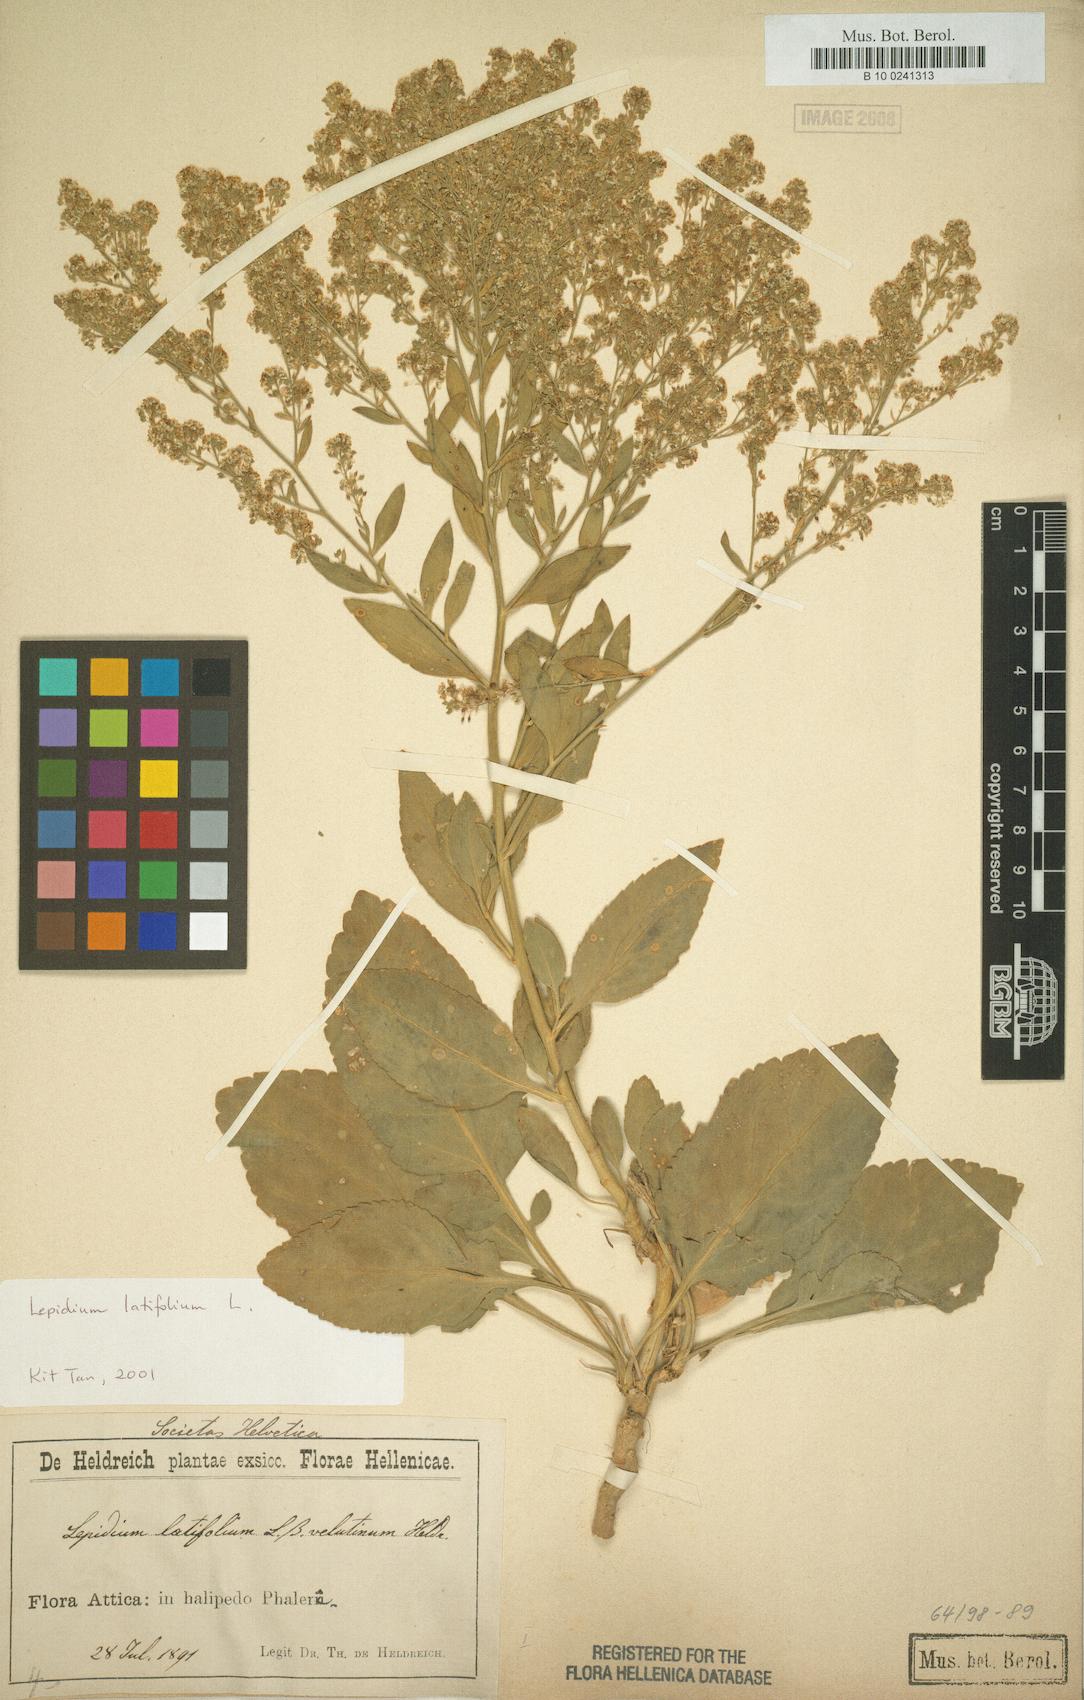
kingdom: Plantae
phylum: Tracheophyta
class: Magnoliopsida
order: Brassicales
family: Brassicaceae
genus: Lepidium
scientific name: Lepidium latifolium
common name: Dittander
